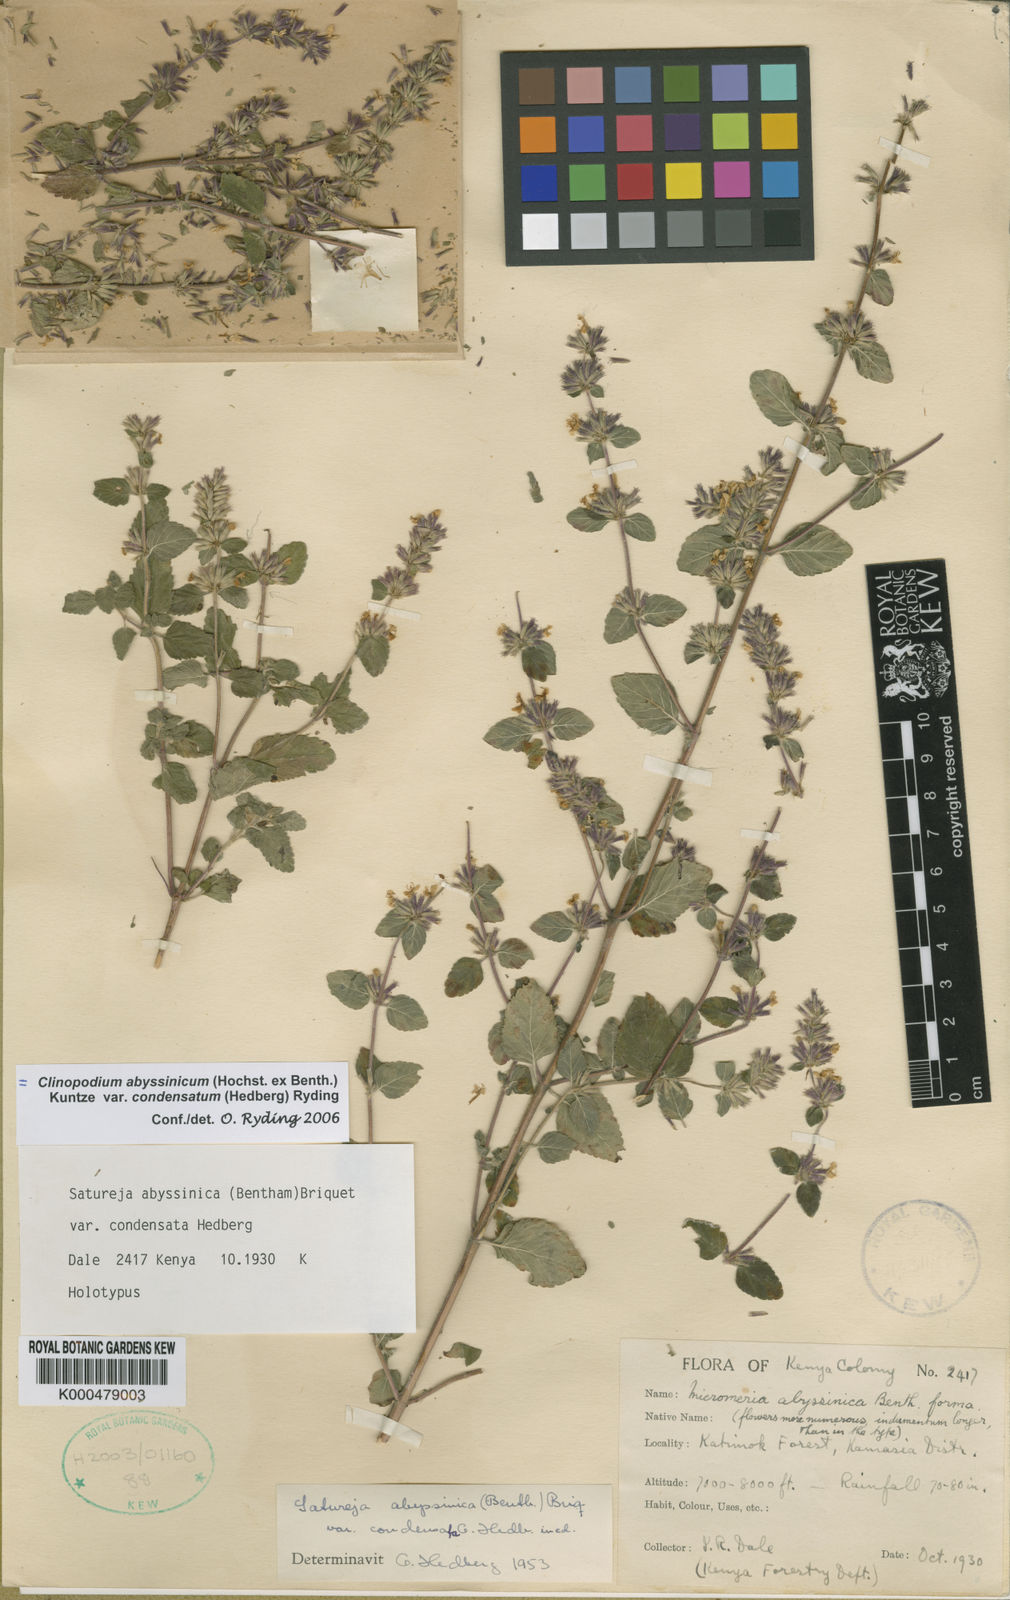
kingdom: Plantae
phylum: Tracheophyta
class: Magnoliopsida
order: Lamiales
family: Lamiaceae
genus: Clinopodium
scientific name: Clinopodium abyssinicum
